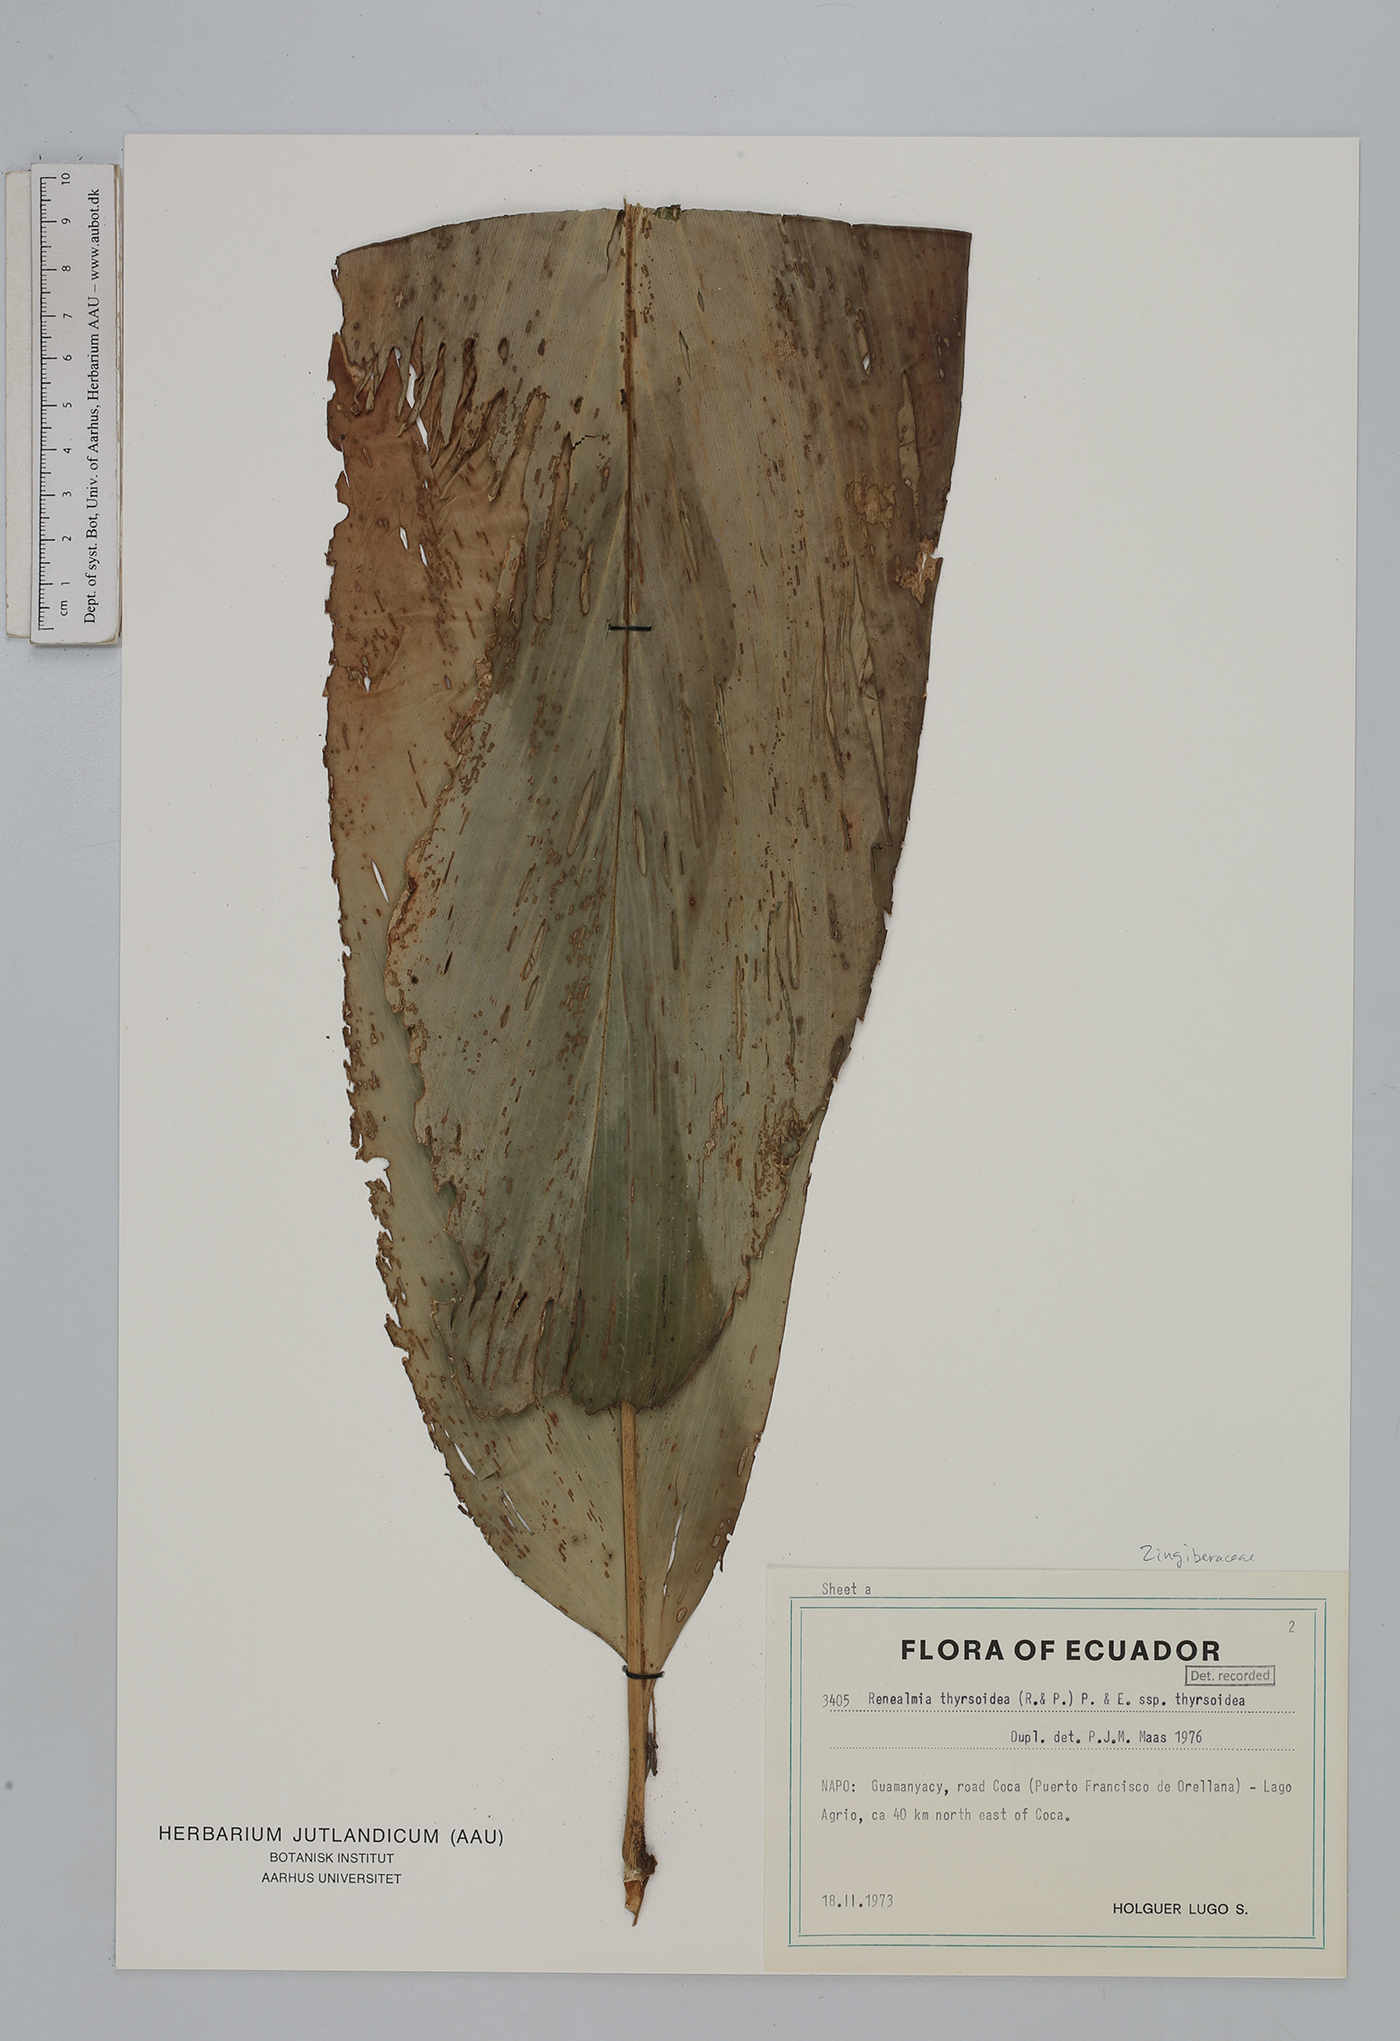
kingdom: Plantae
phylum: Tracheophyta
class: Liliopsida
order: Zingiberales
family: Zingiberaceae
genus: Renealmia
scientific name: Renealmia thyrsoidea
